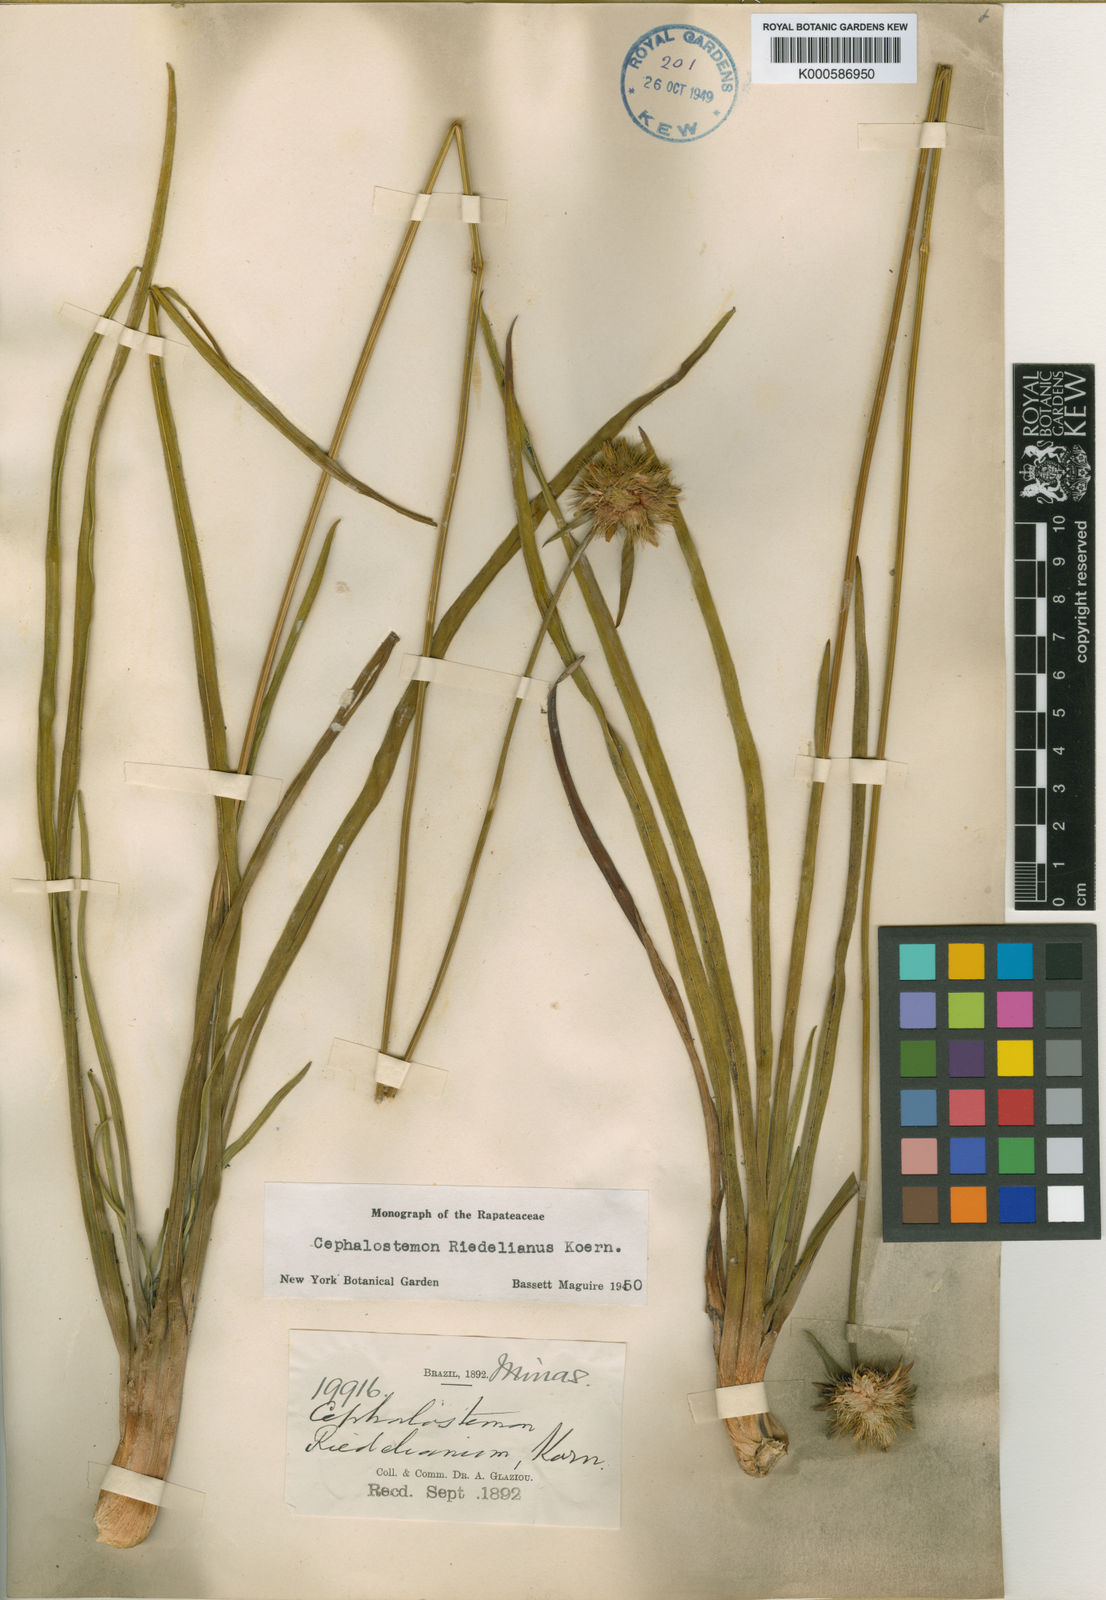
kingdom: Plantae
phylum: Tracheophyta
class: Liliopsida
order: Poales
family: Rapateaceae
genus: Cephalostemon
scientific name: Cephalostemon
